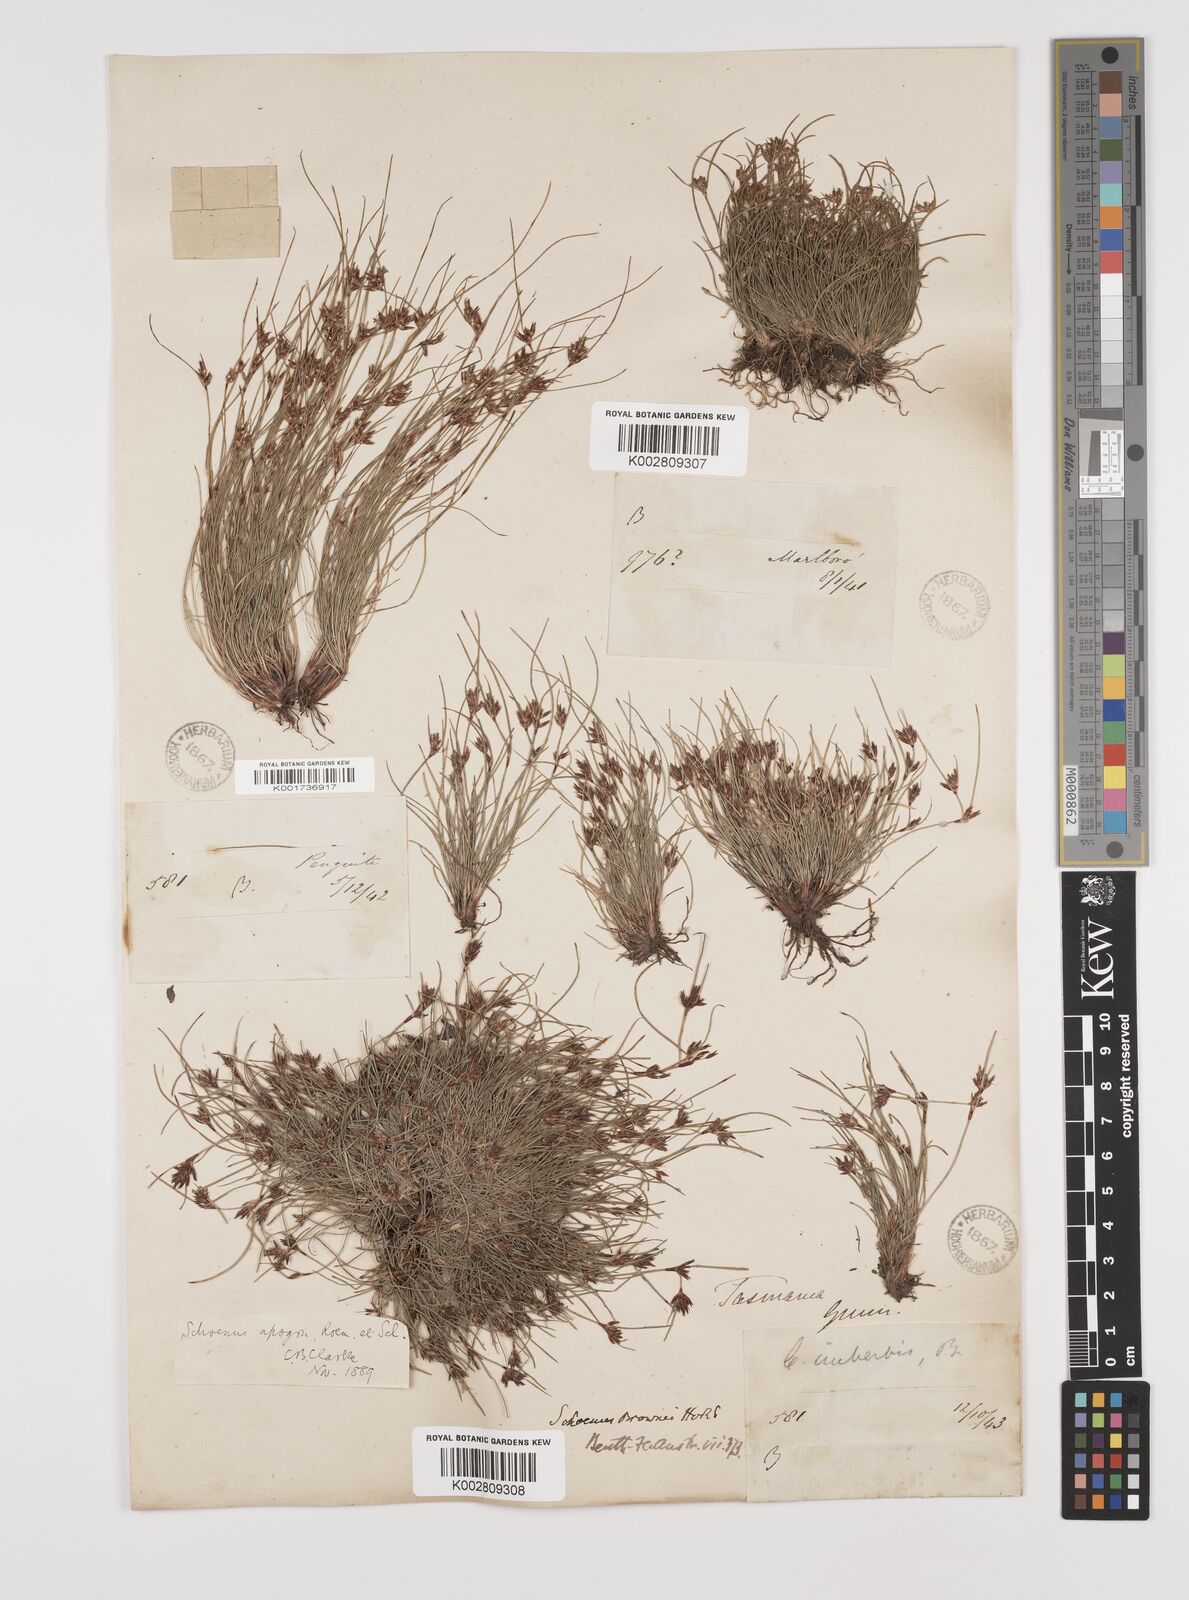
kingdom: Plantae
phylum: Tracheophyta
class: Liliopsida
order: Poales
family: Cyperaceae
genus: Schoenus
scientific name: Schoenus apogon
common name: Smooth bogrush
